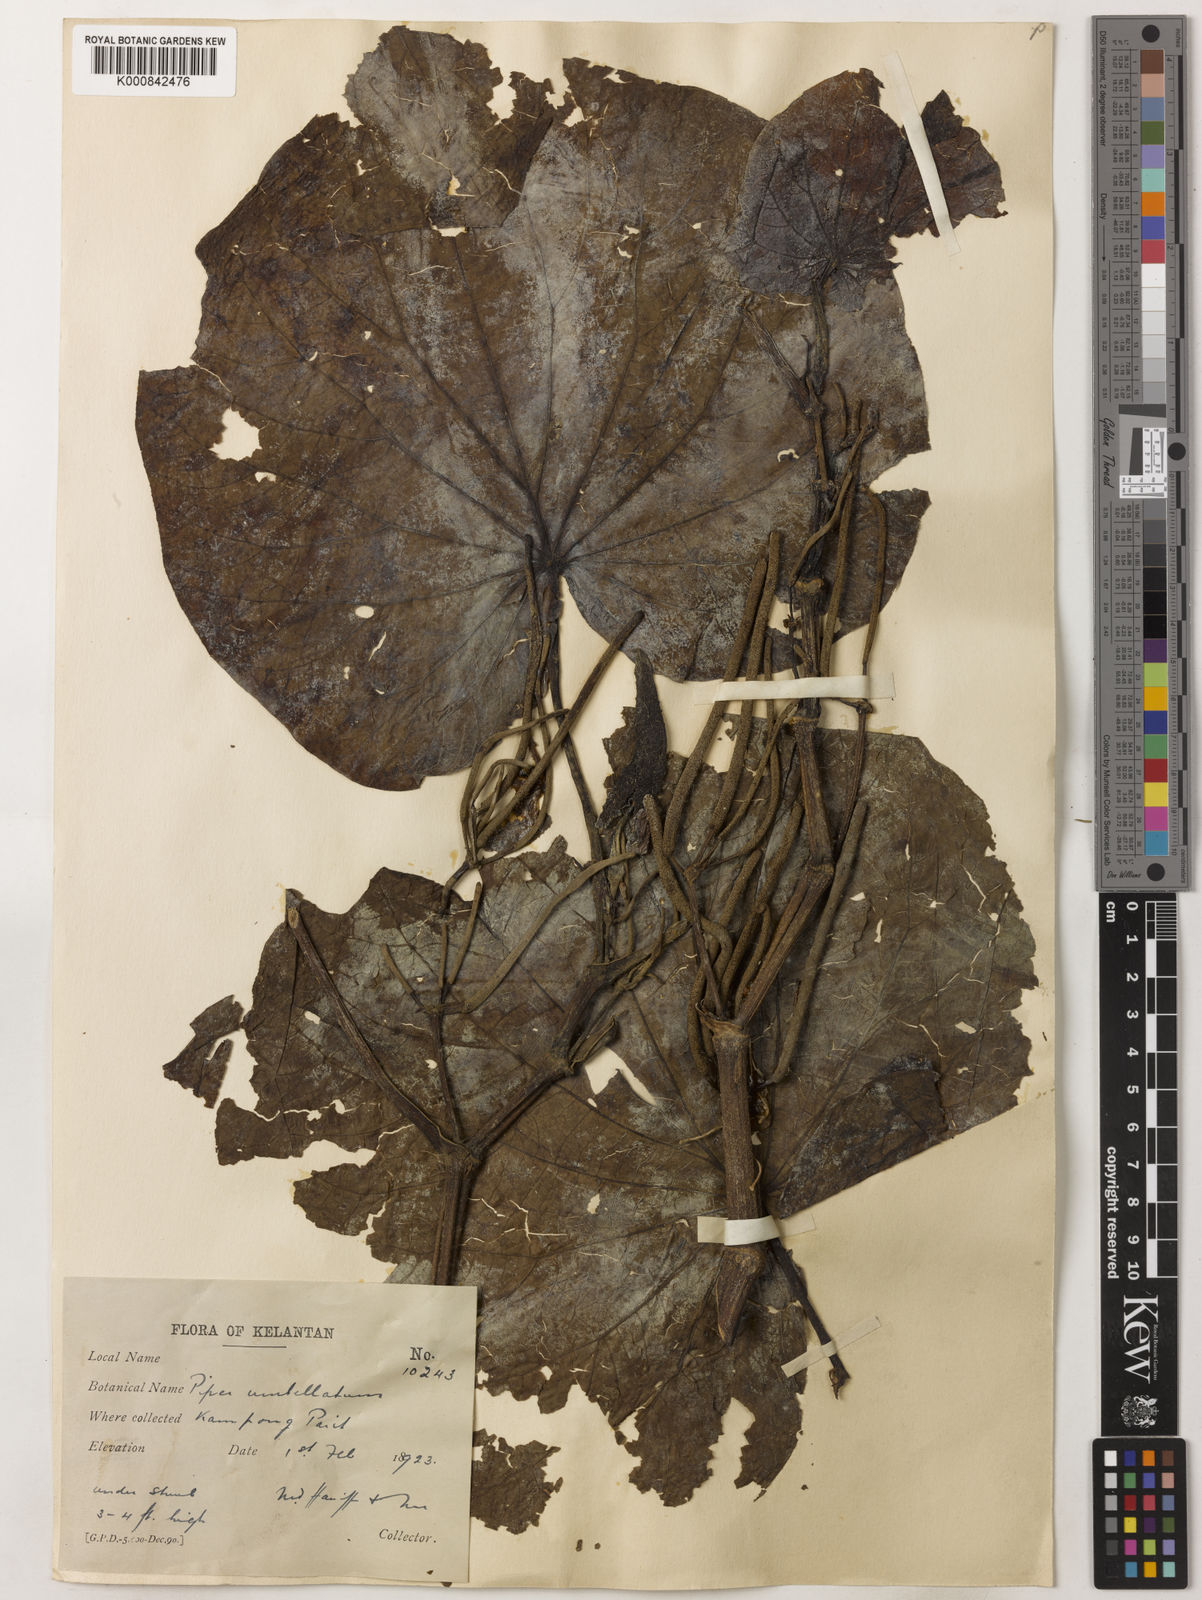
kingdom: Plantae
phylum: Tracheophyta
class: Magnoliopsida
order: Piperales
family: Piperaceae
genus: Piper
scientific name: Piper umbellatum
